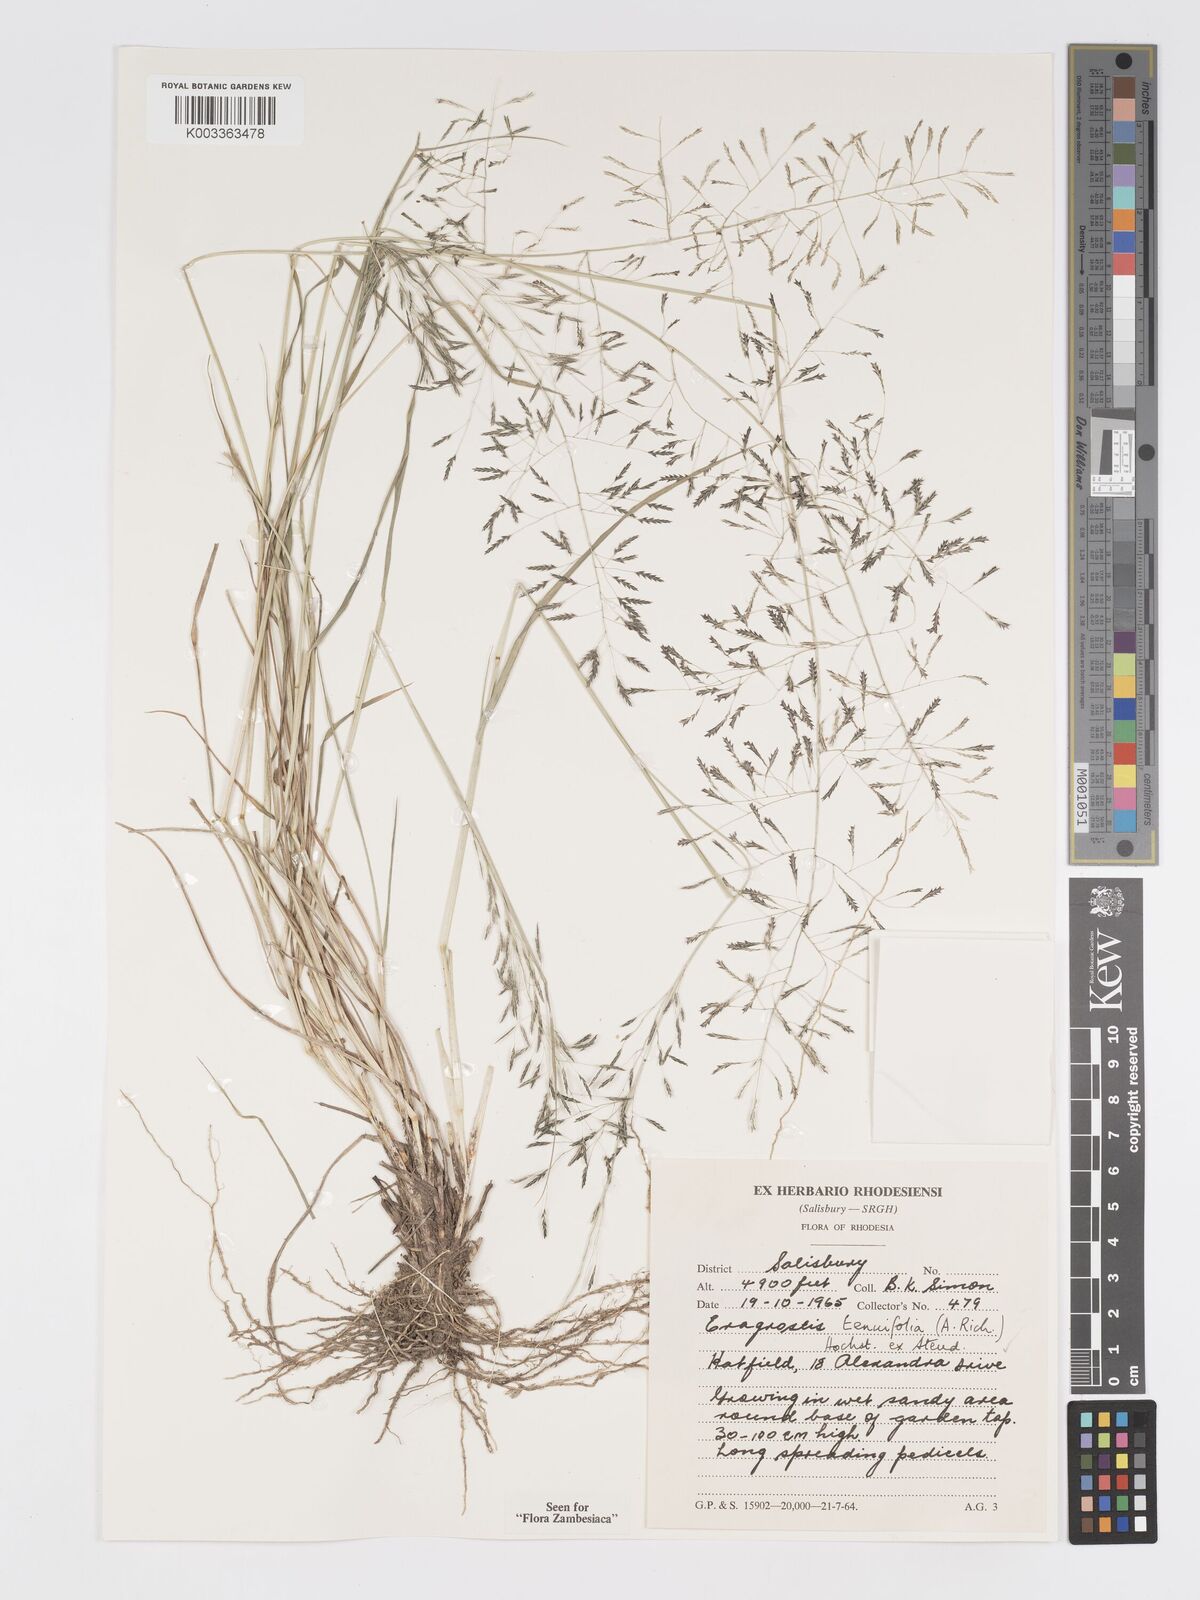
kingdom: Plantae
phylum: Tracheophyta
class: Liliopsida
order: Poales
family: Poaceae
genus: Eragrostis
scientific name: Eragrostis tenuifolia
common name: Elastic grass
